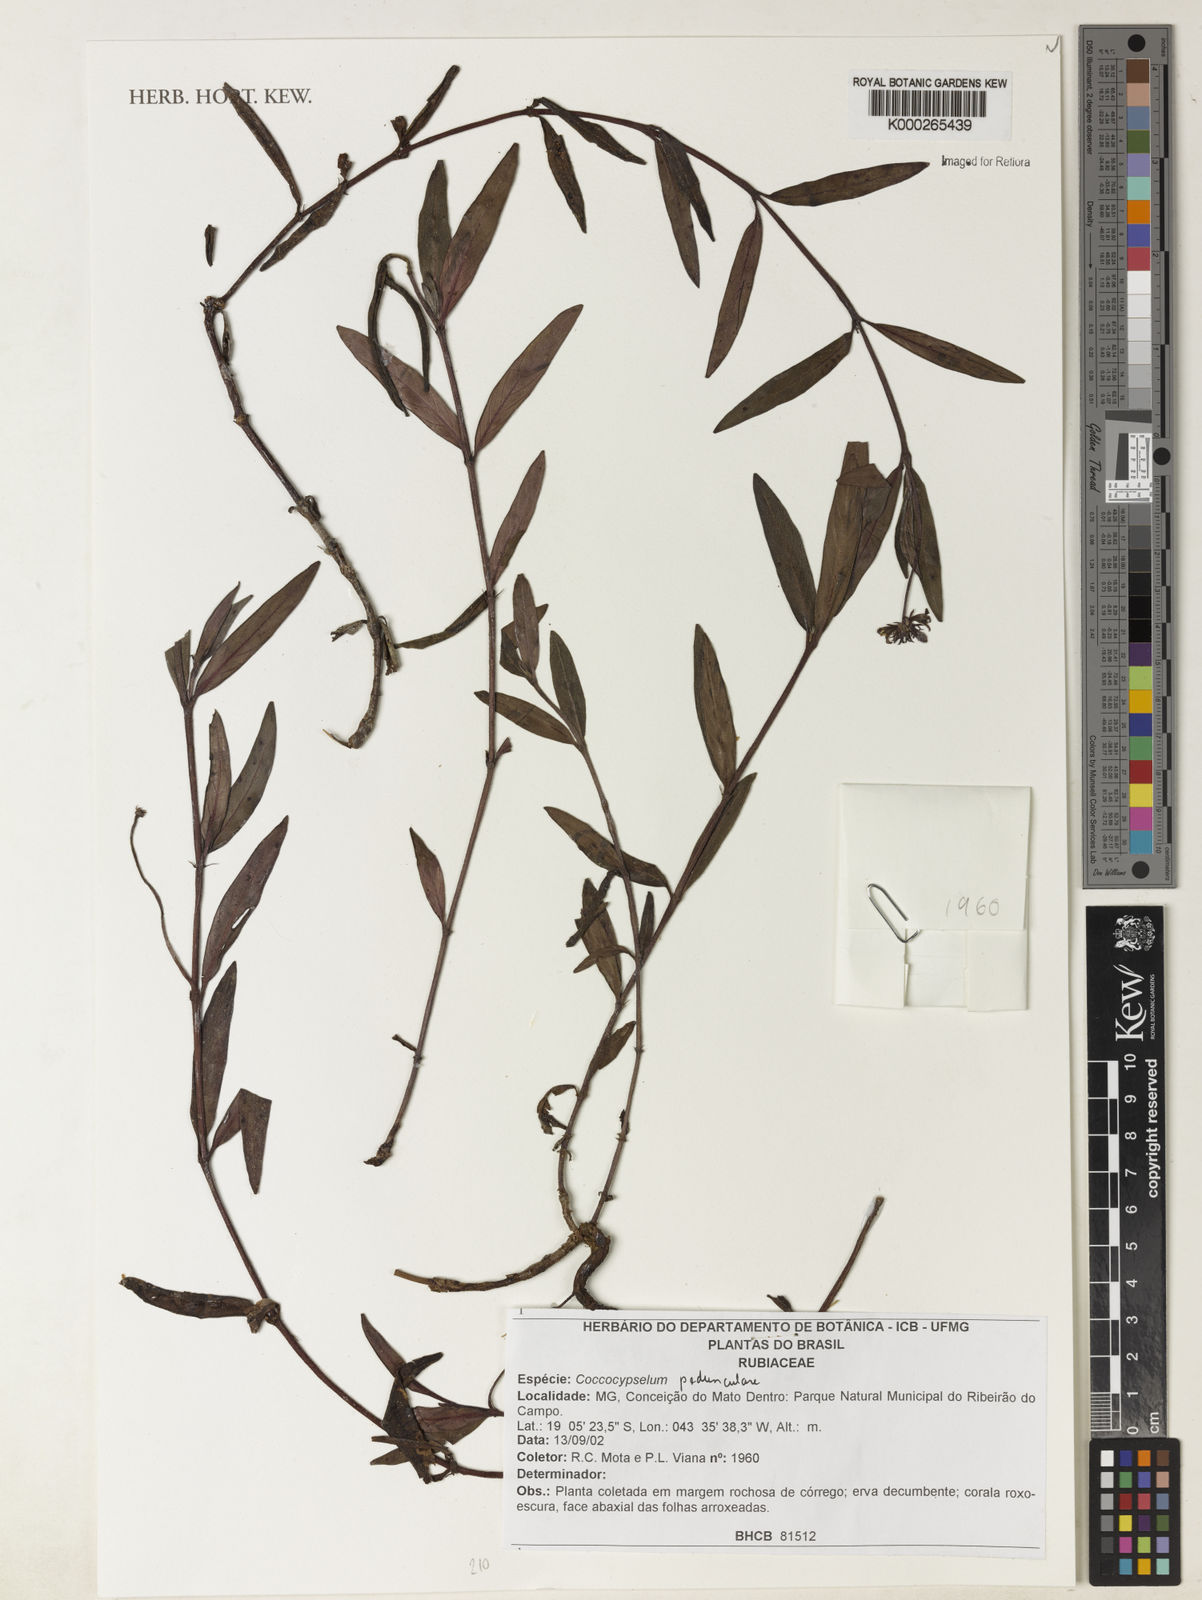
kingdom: Plantae
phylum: Tracheophyta
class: Magnoliopsida
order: Gentianales
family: Rubiaceae
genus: Coccocypselum
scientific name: Coccocypselum pedunculare
